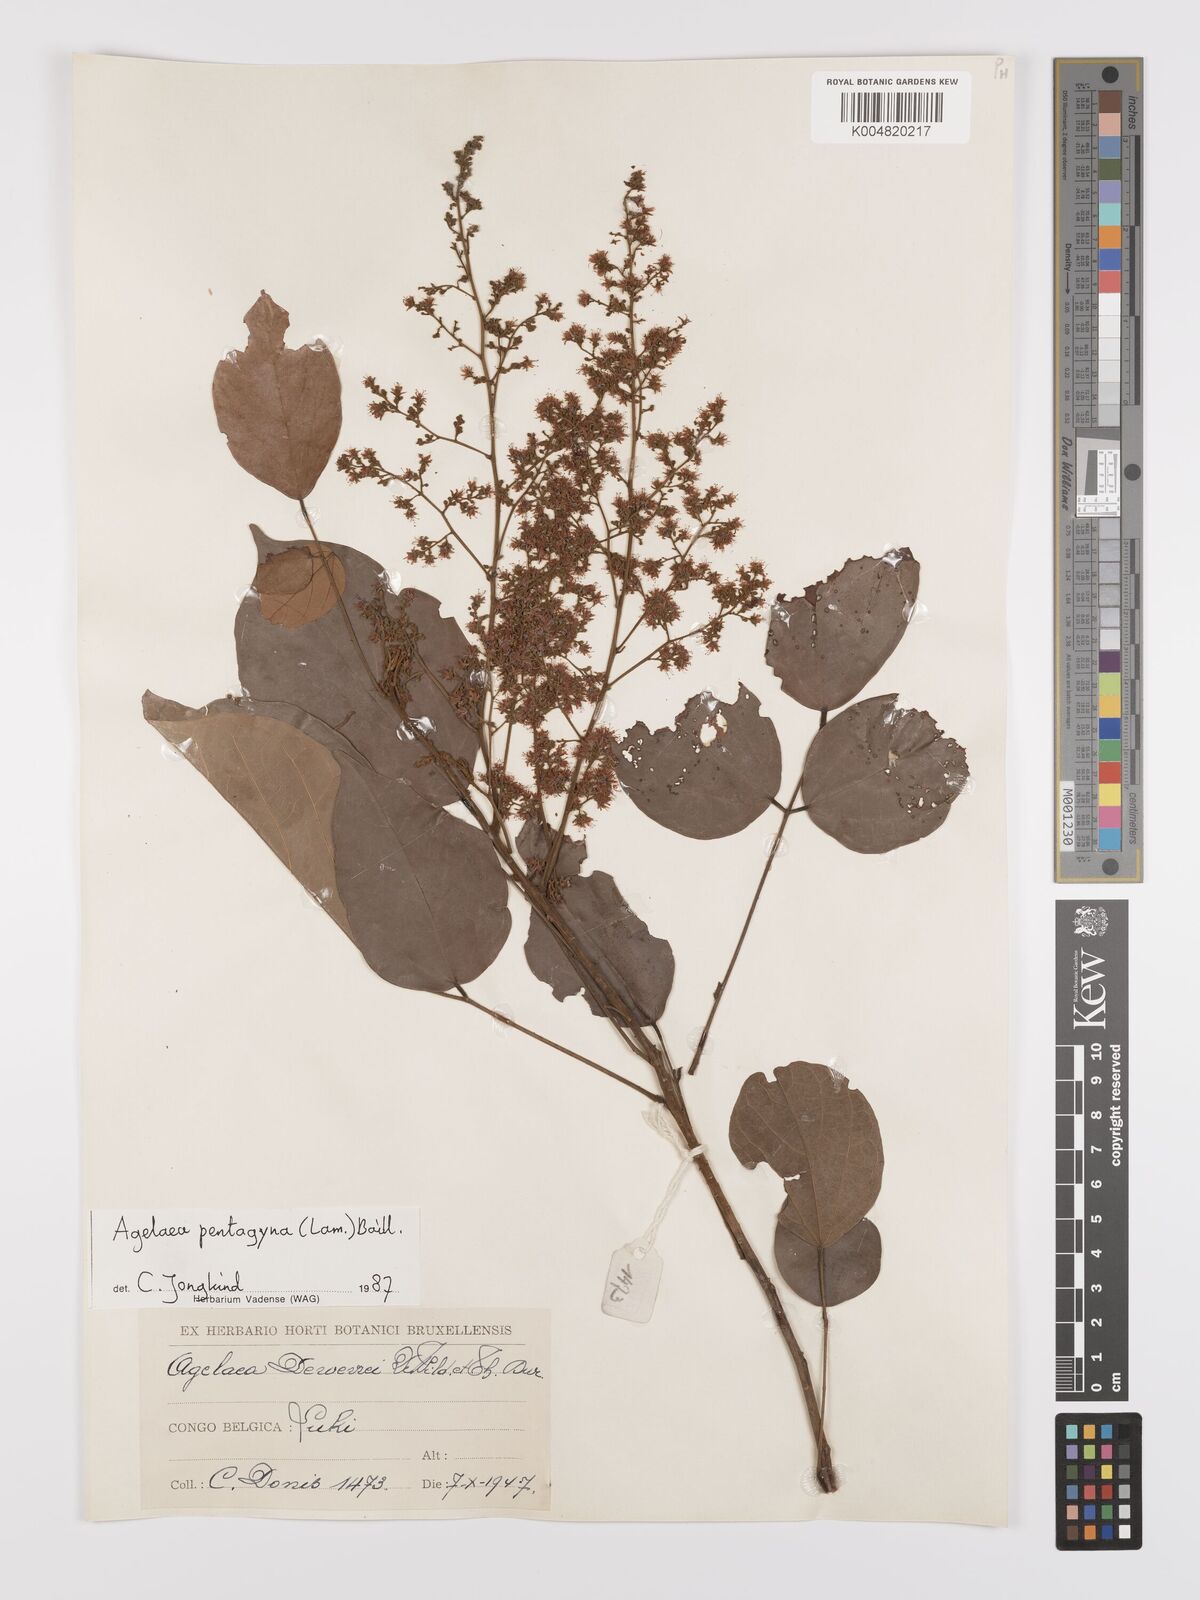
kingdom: Plantae
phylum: Tracheophyta
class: Magnoliopsida
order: Oxalidales
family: Connaraceae
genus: Agelaea
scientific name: Agelaea pentagyna
